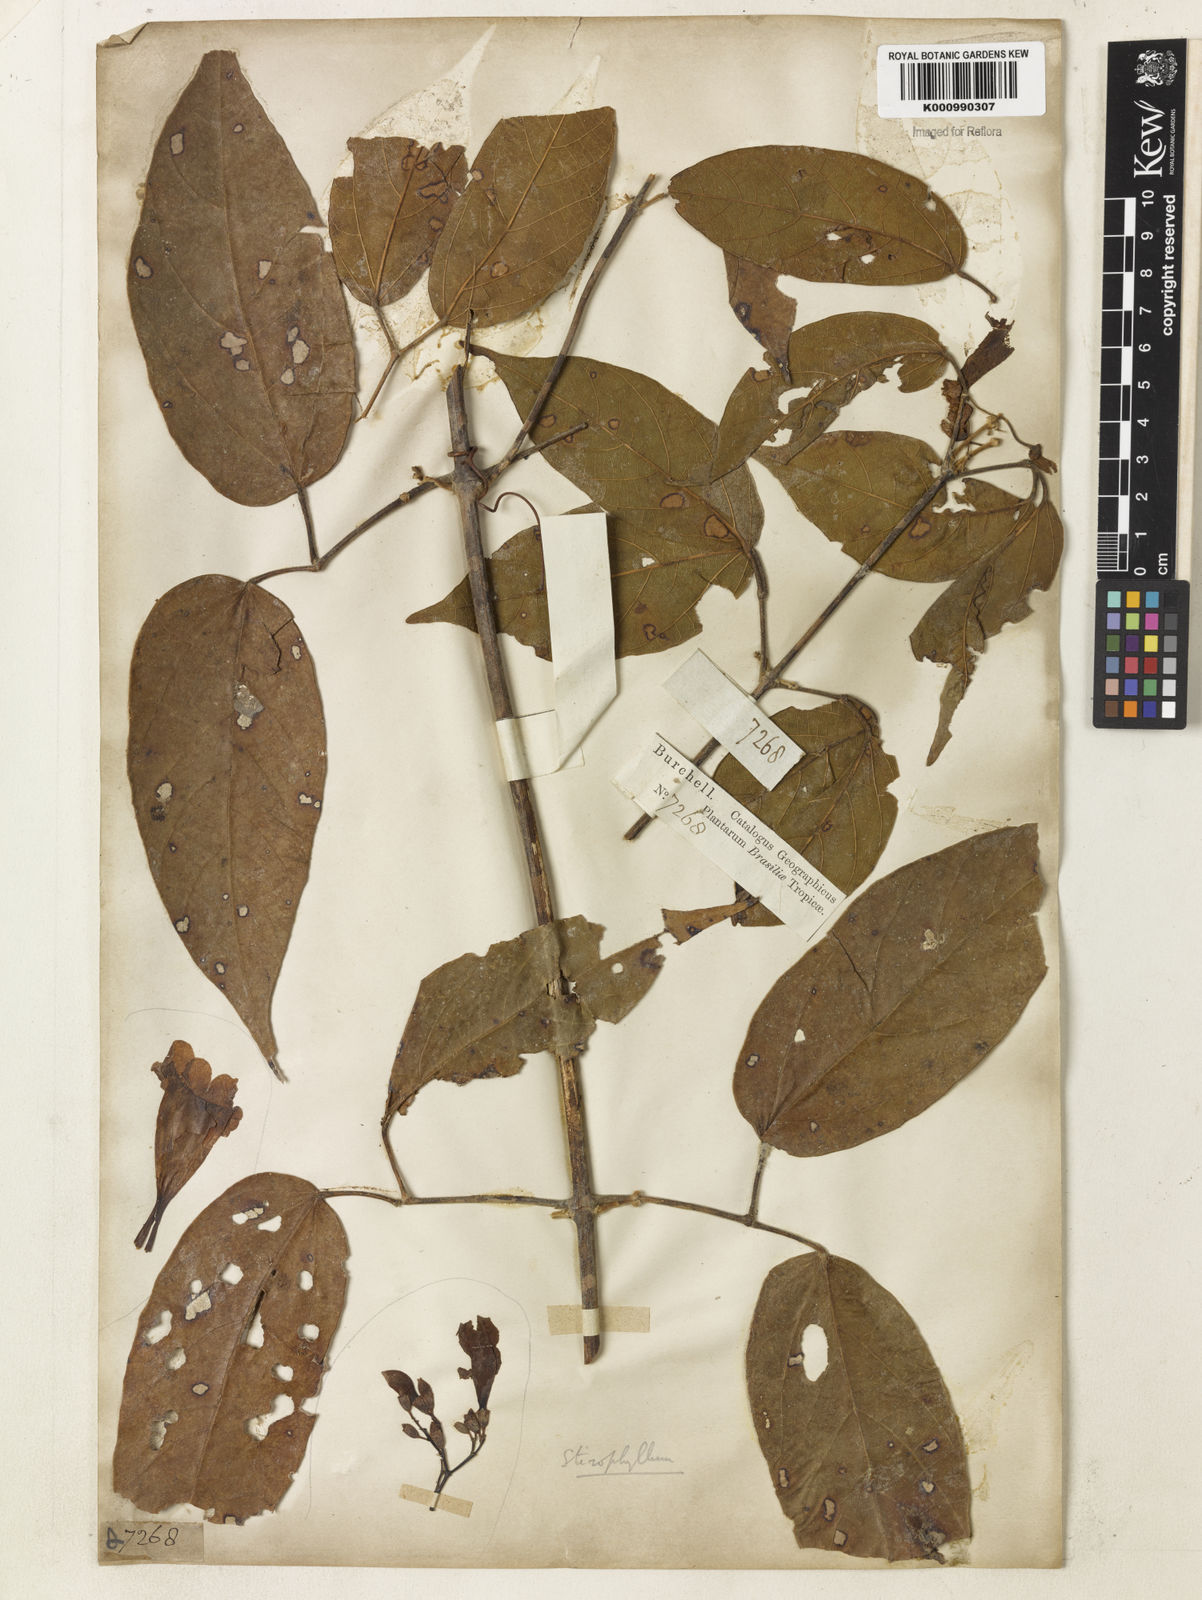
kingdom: Plantae
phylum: Tracheophyta
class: Magnoliopsida
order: Lamiales
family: Bignoniaceae
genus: Stizophyllum
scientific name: Stizophyllum perforatum
